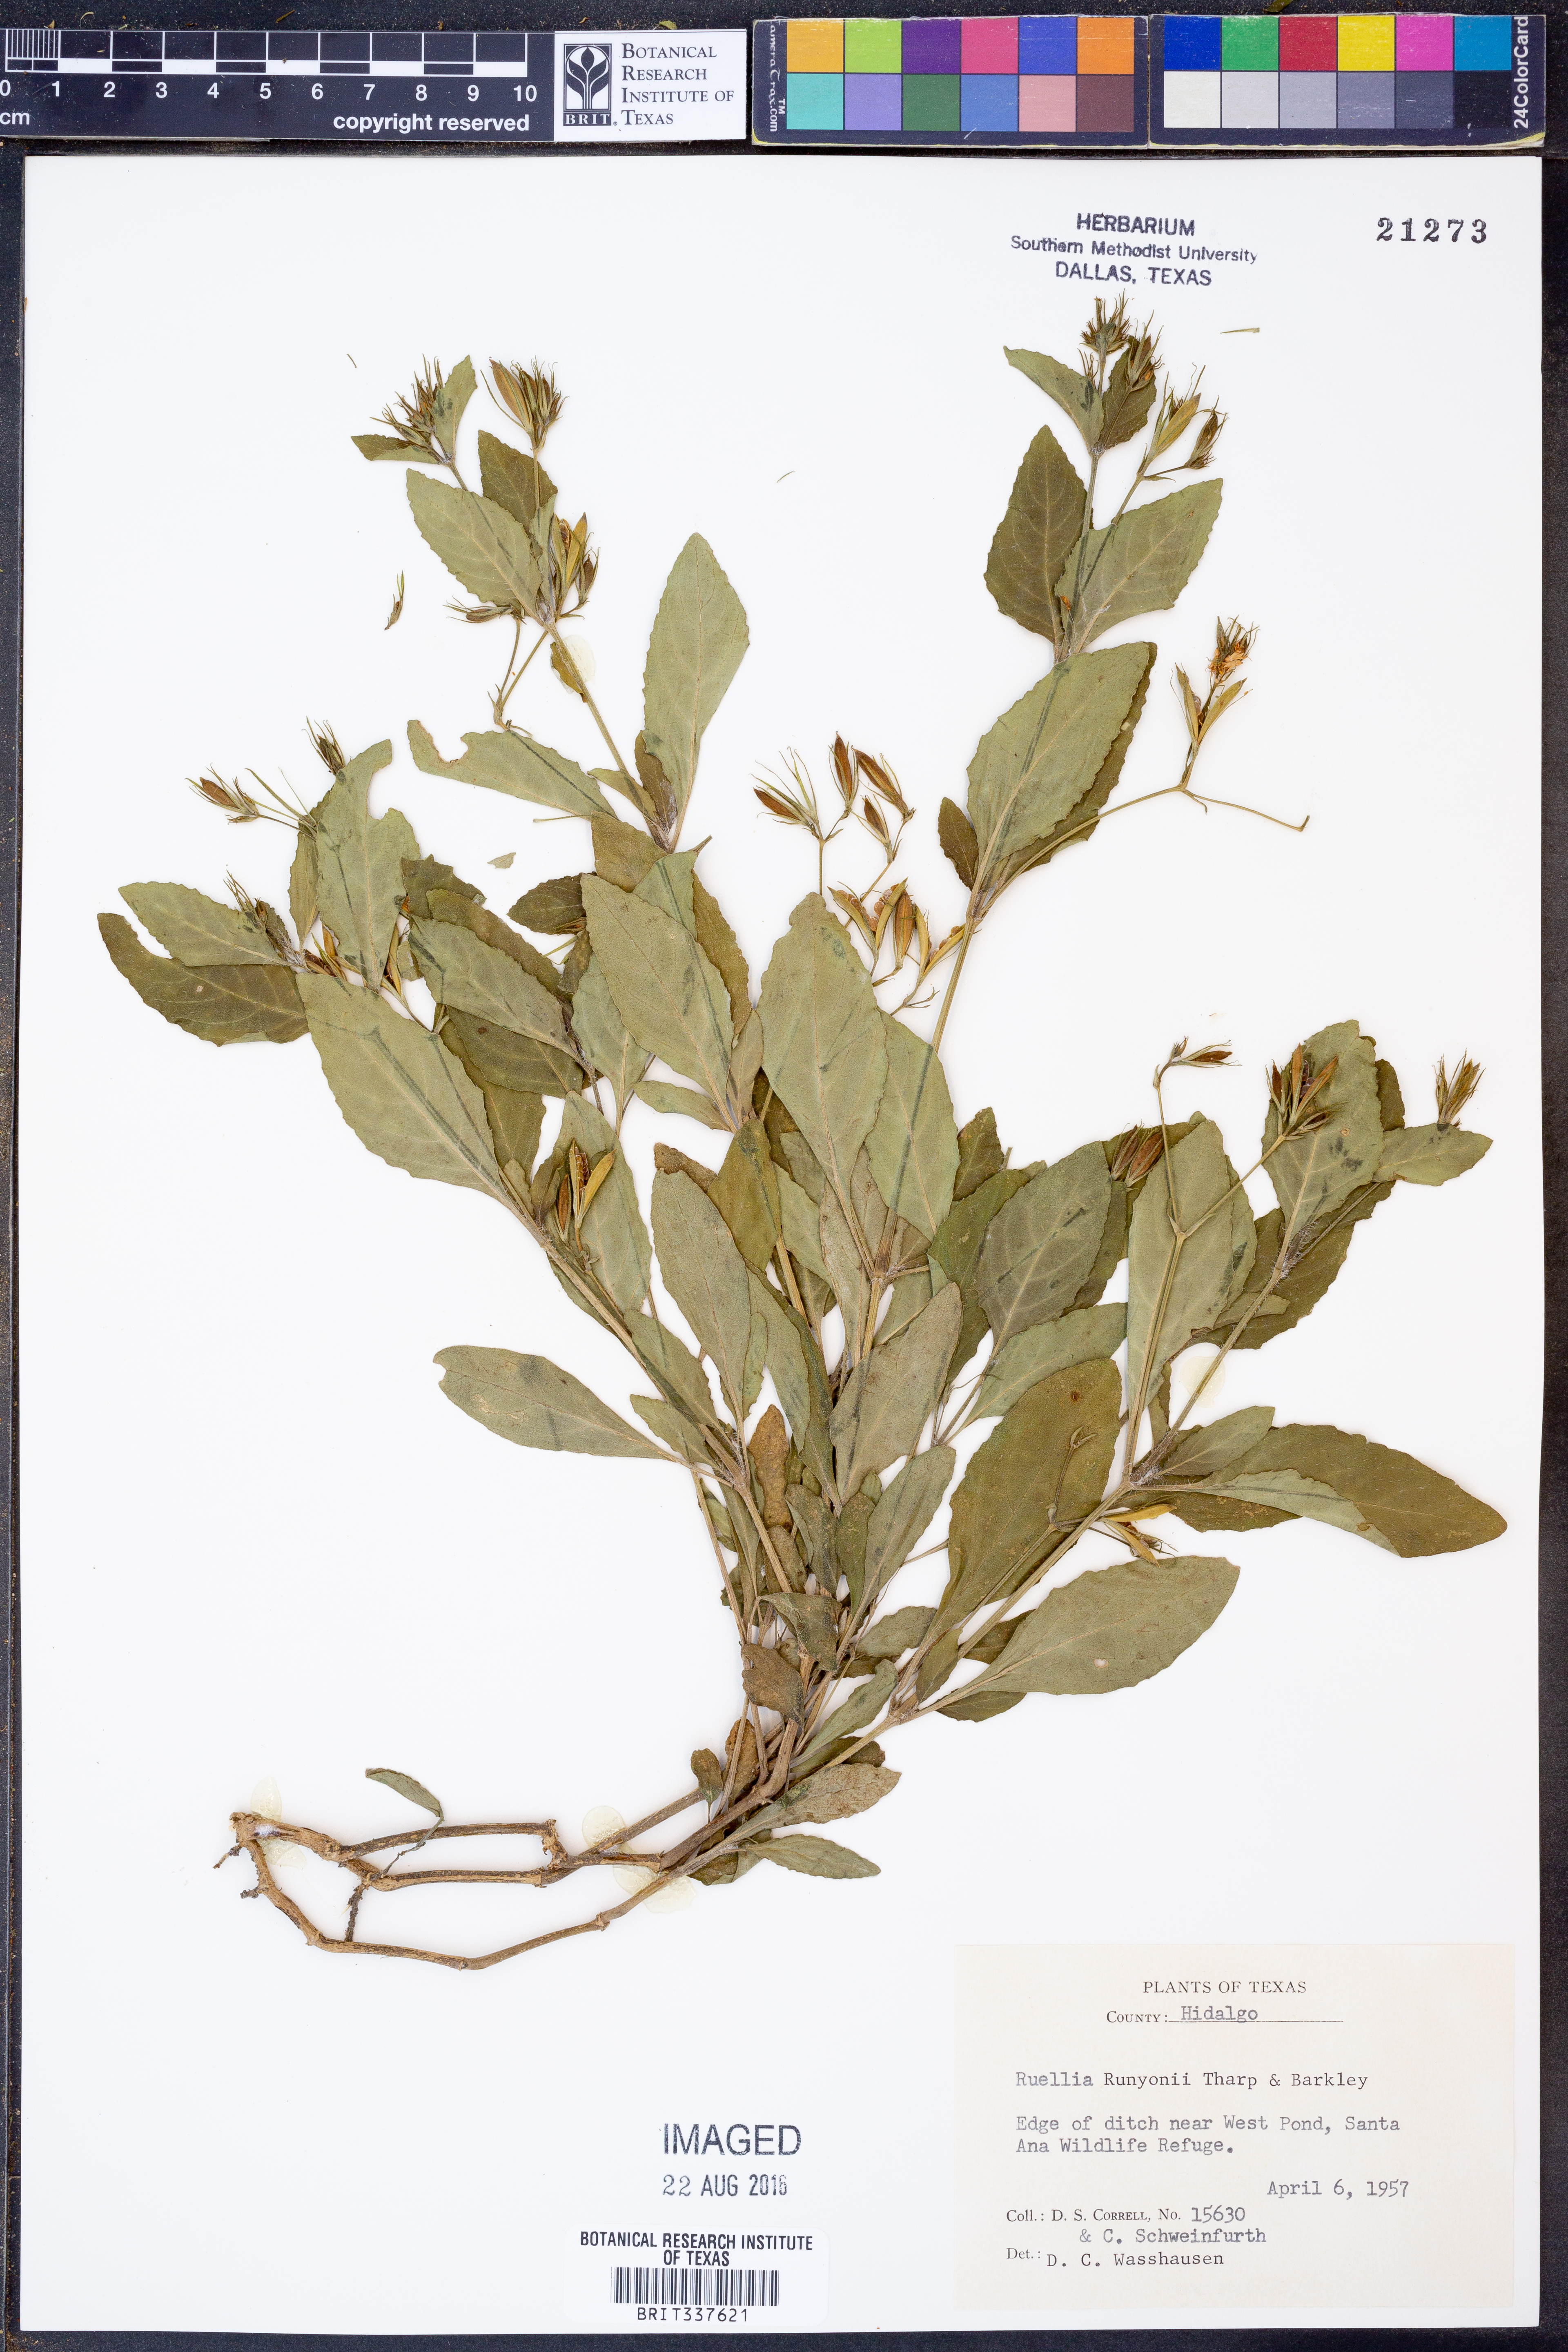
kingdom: Plantae
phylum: Tracheophyta
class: Magnoliopsida
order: Lamiales
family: Acanthaceae
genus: Ruellia
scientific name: Ruellia ciliatiflora
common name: Hairyflower wild petunia
